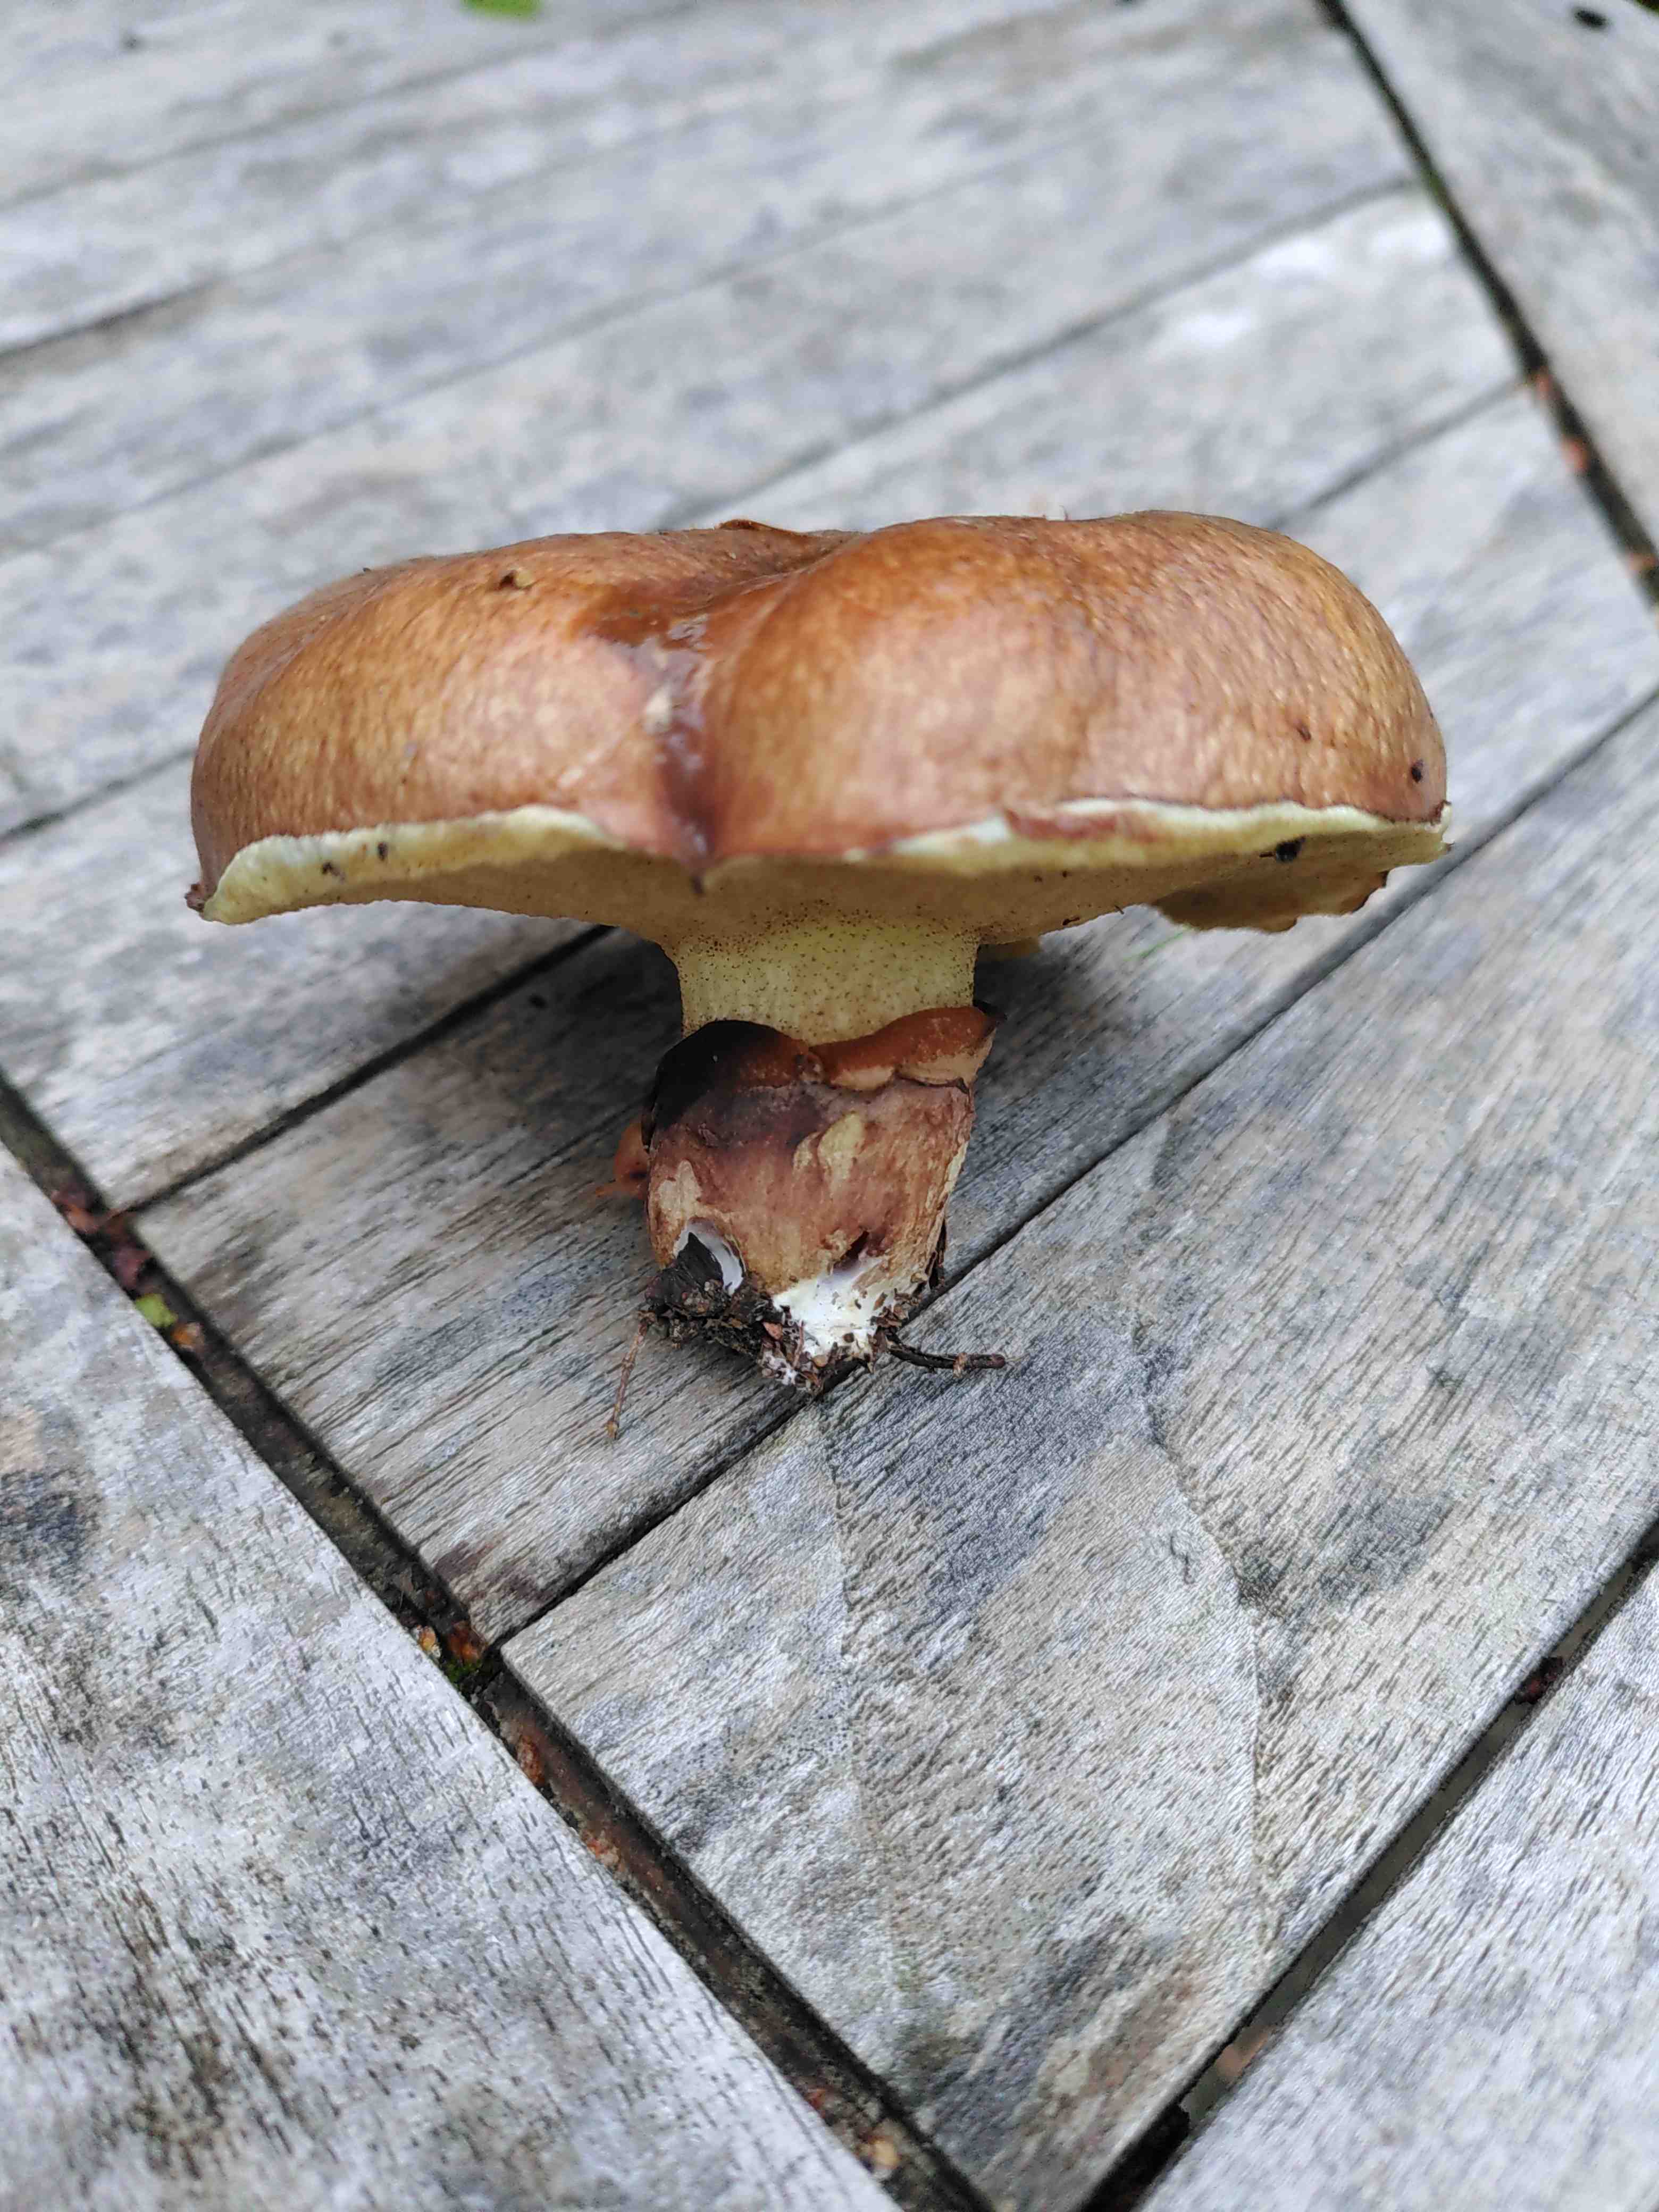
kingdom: Fungi
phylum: Basidiomycota
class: Agaricomycetes
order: Boletales
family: Suillaceae
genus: Suillus
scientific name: Suillus luteus
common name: brungul slimrørhat
